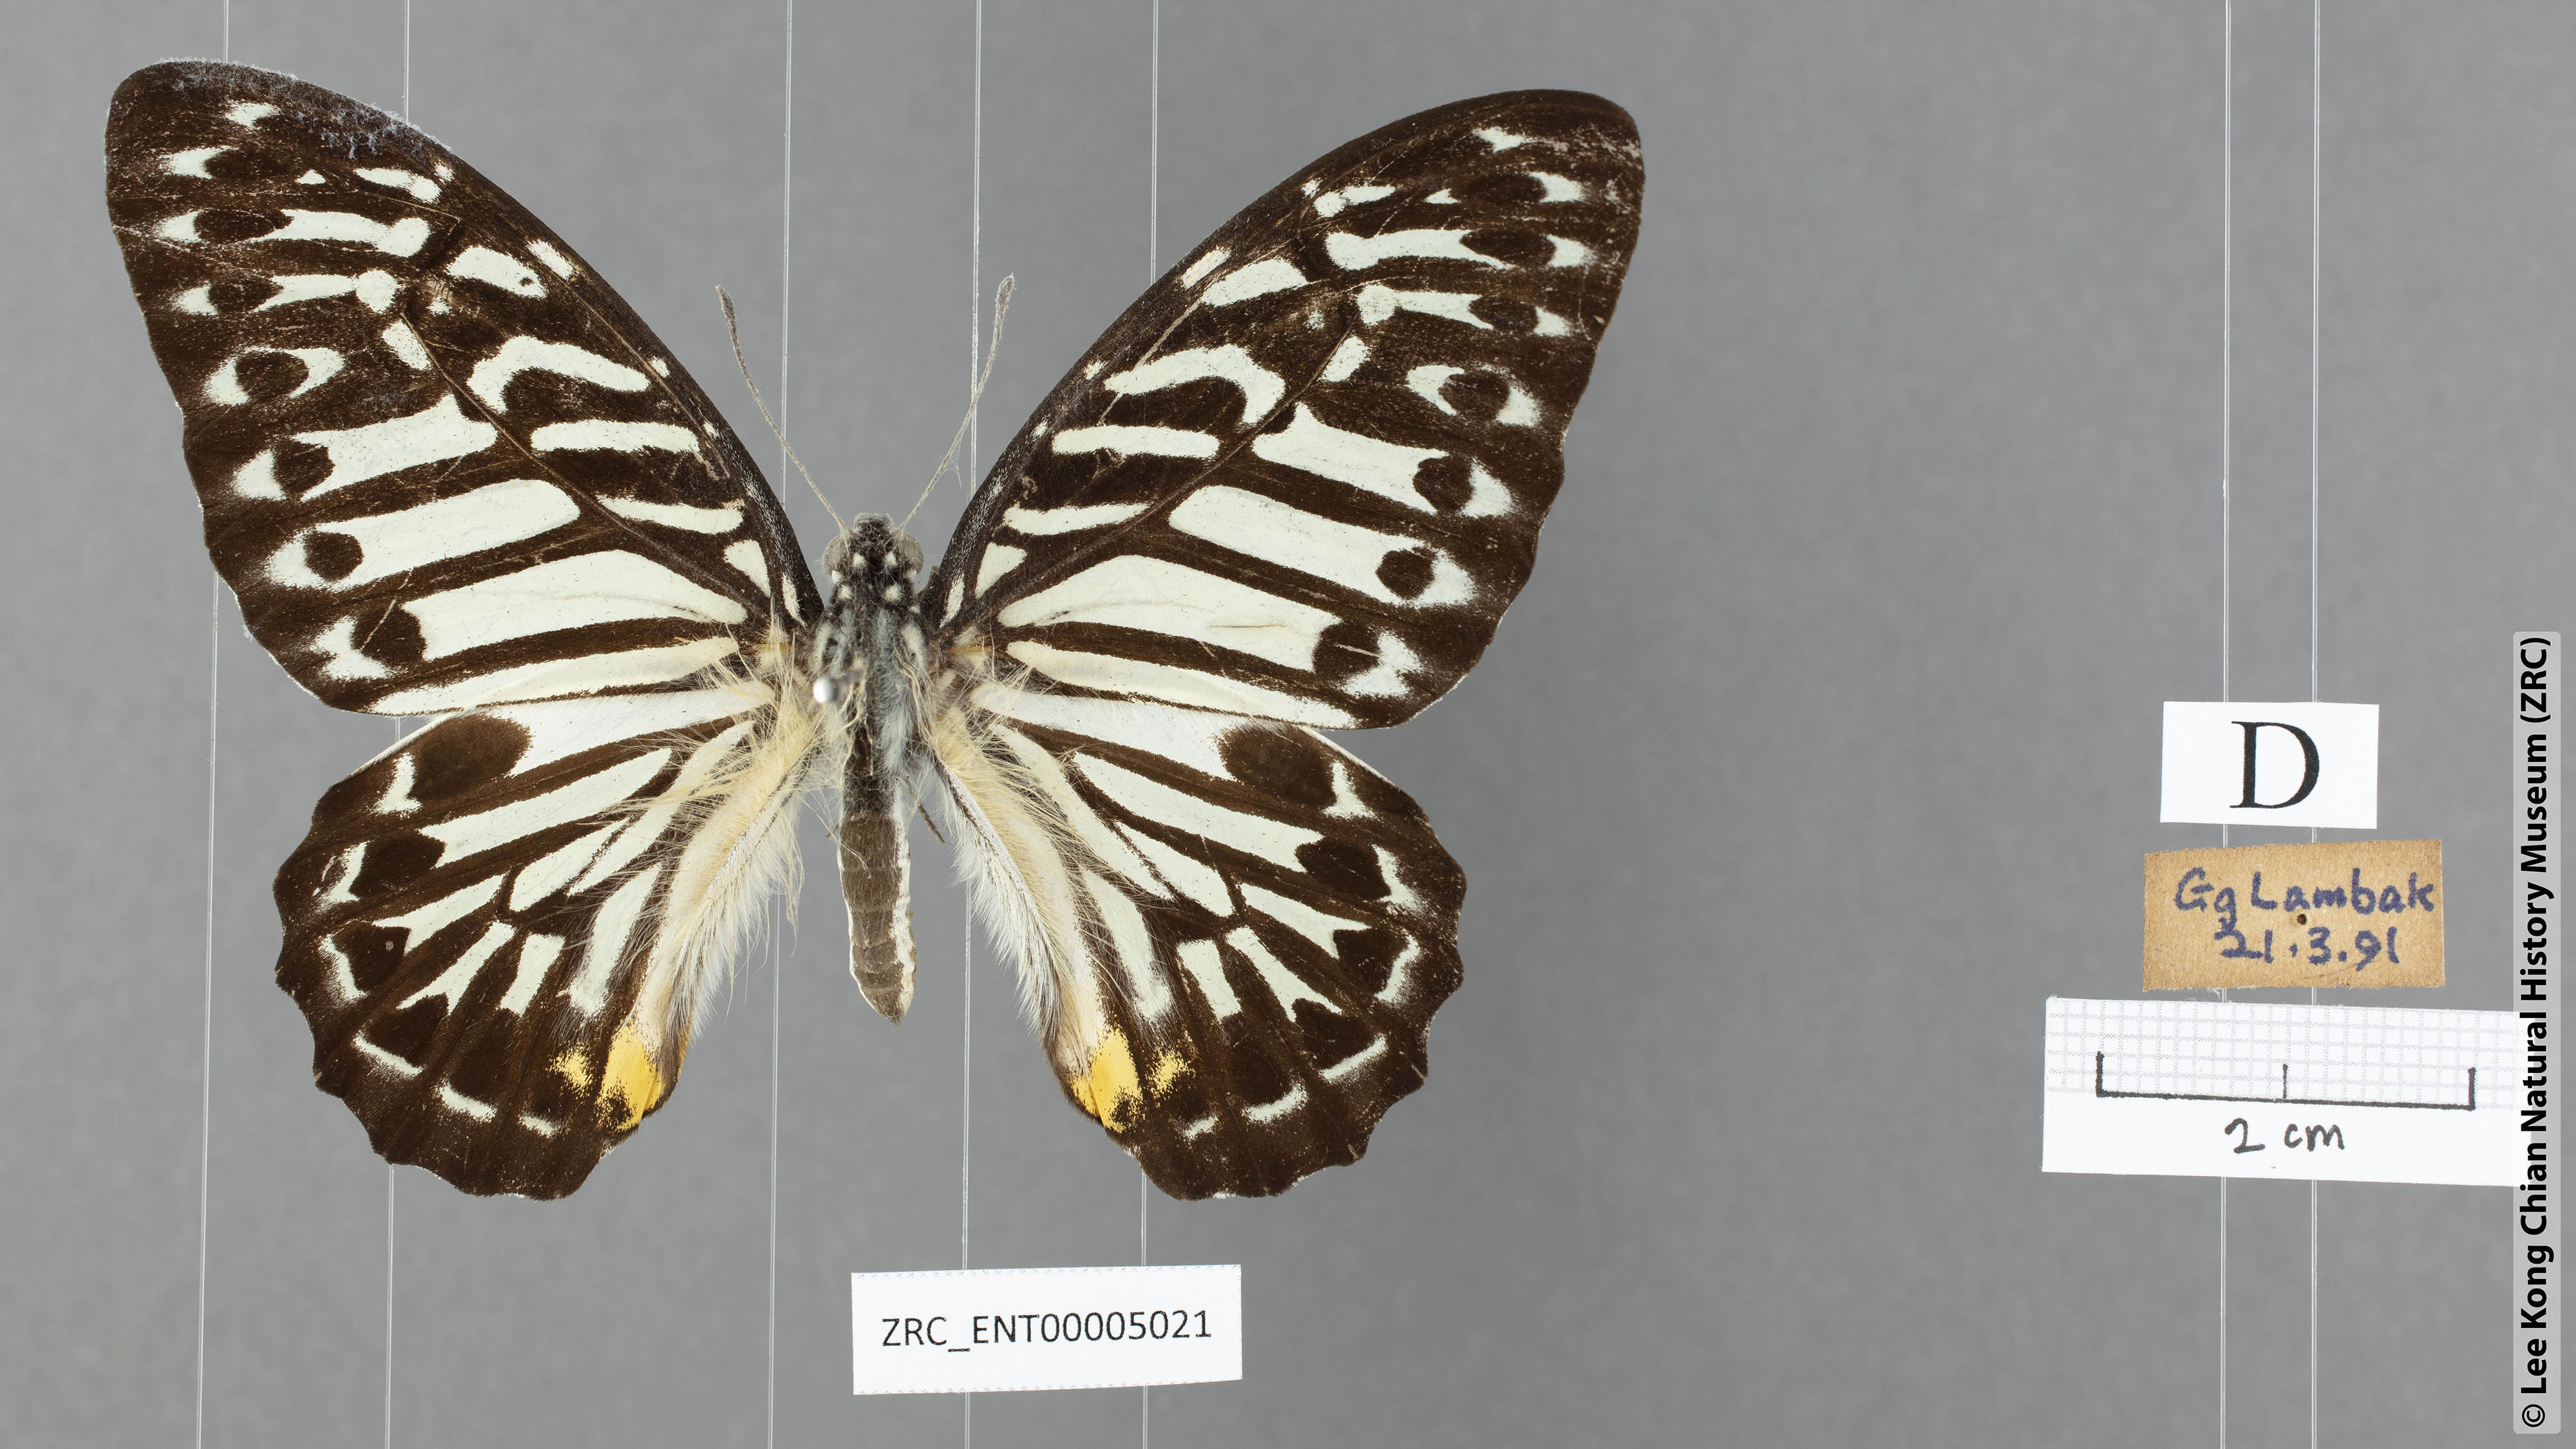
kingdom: Animalia
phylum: Arthropoda
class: Insecta
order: Lepidoptera
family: Papilionidae
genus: Graphium
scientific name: Graphium delesserti
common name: Malayan zebra
